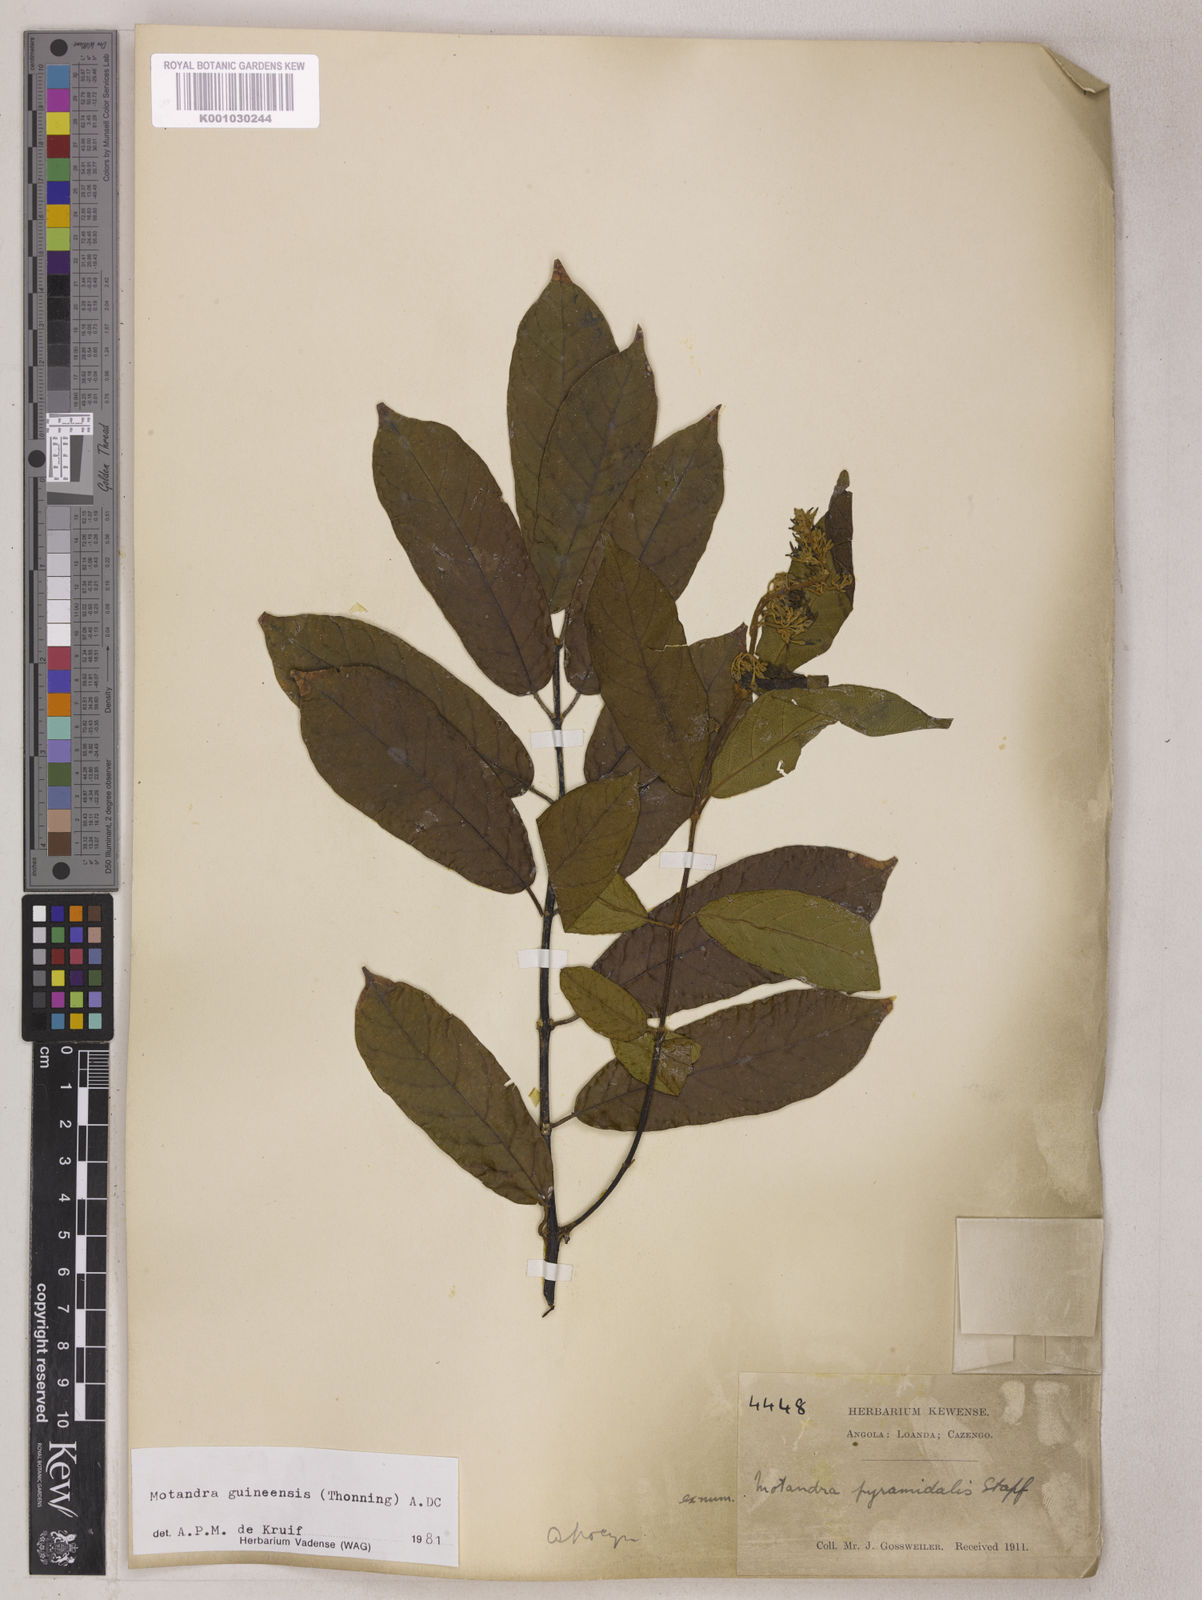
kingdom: Plantae
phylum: Tracheophyta
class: Magnoliopsida
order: Gentianales
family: Apocynaceae
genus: Motandra
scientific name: Motandra paniculata
